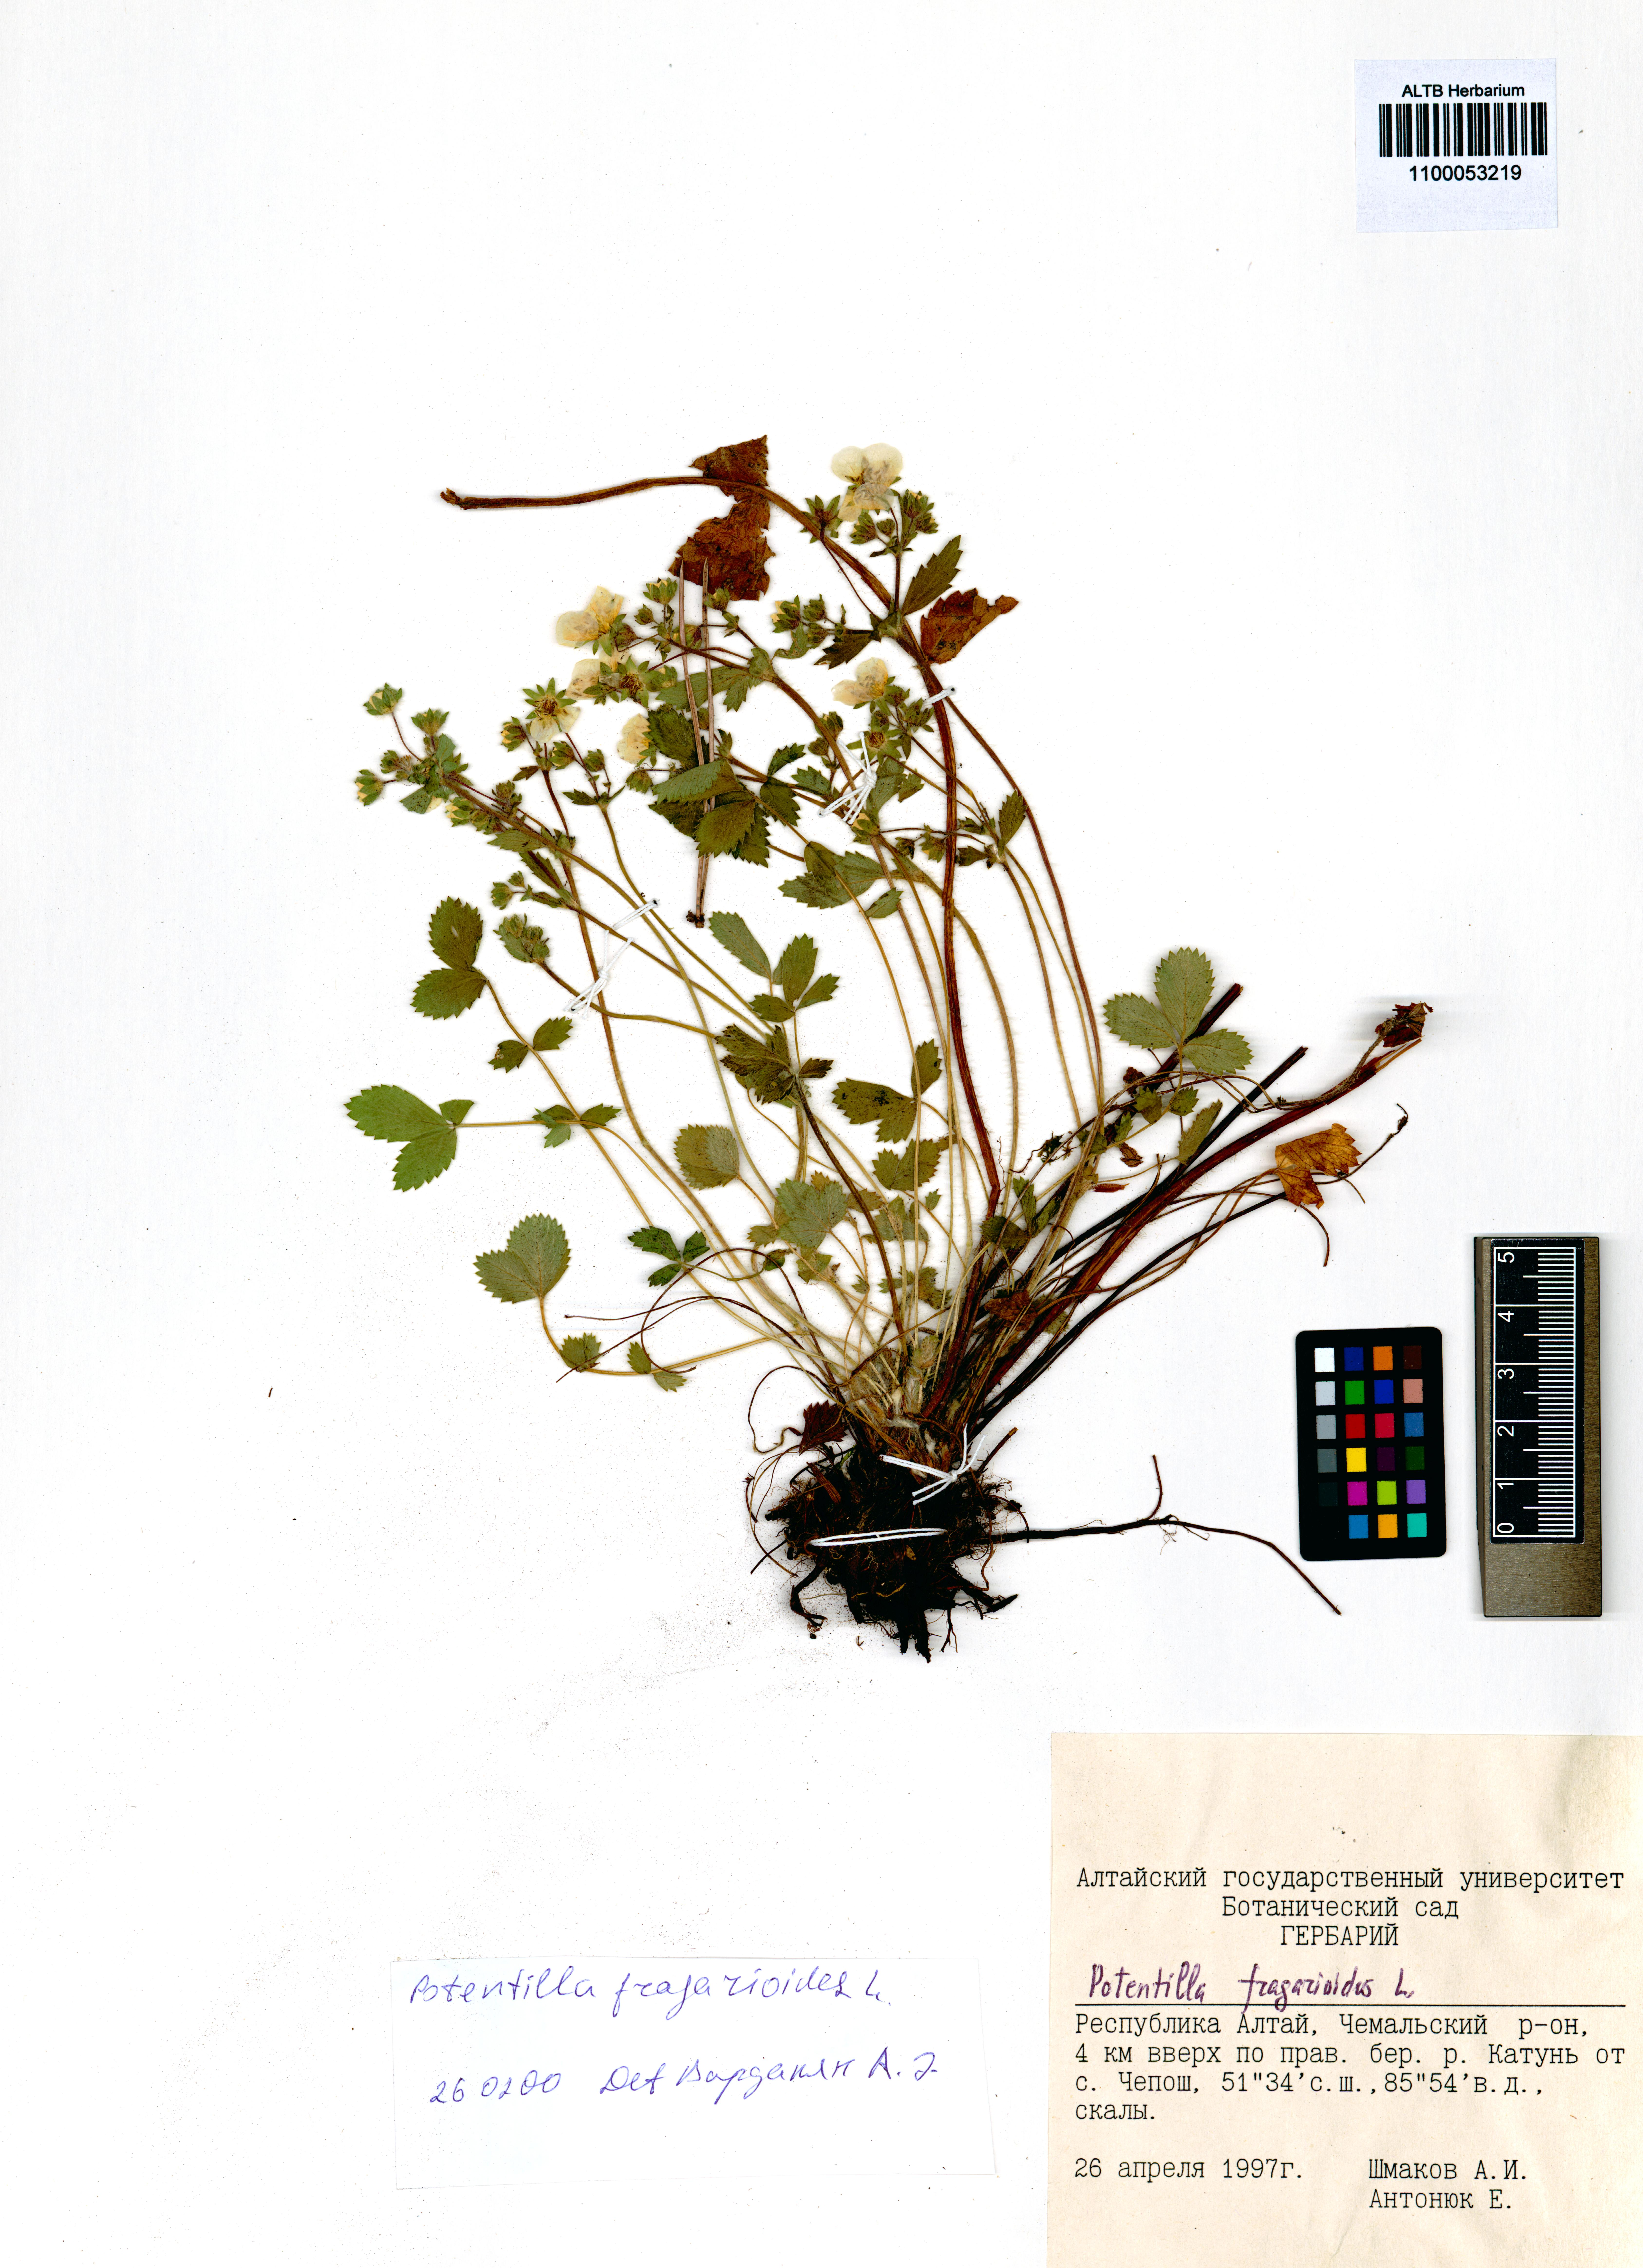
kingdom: Plantae
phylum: Tracheophyta
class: Magnoliopsida
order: Rosales
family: Rosaceae
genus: Potentilla
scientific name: Potentilla fragarioides
